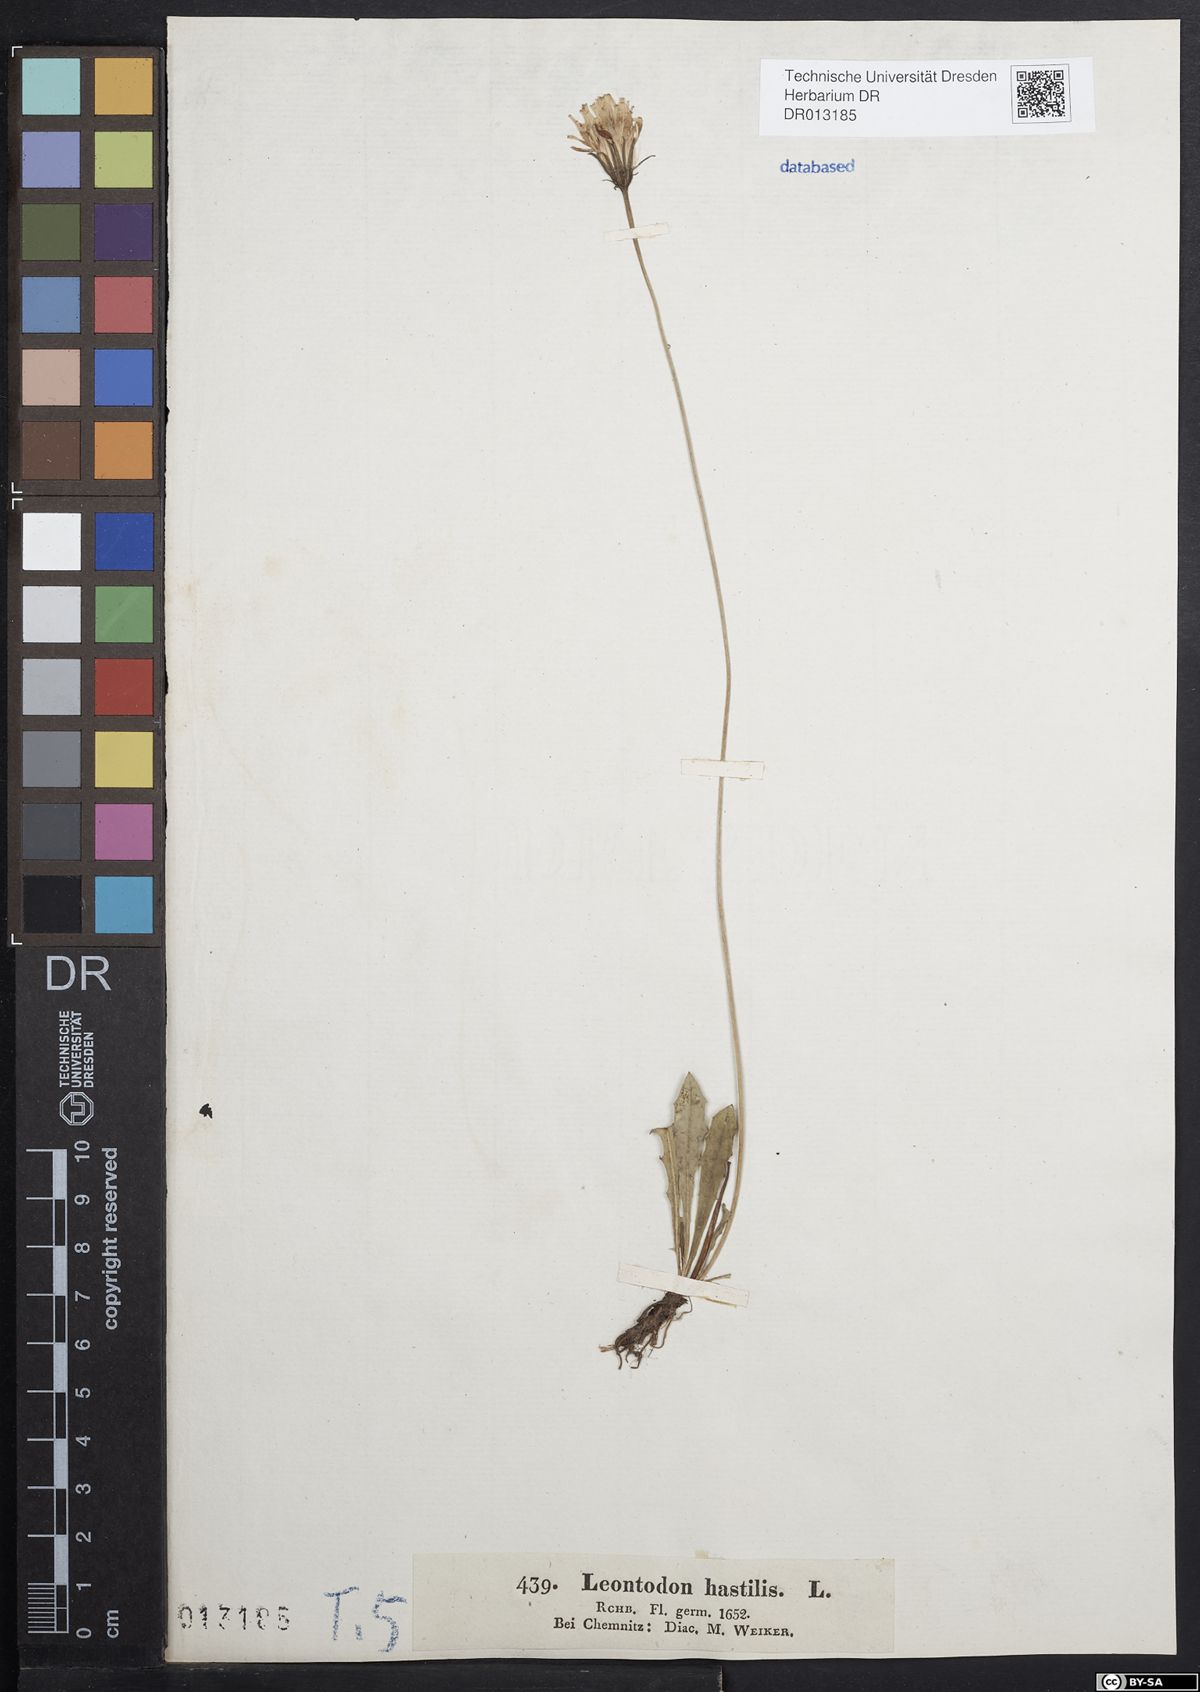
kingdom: Plantae
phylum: Tracheophyta
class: Magnoliopsida
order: Asterales
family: Asteraceae
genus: Leontodon
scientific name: Leontodon hispidus
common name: Rough hawkbit
